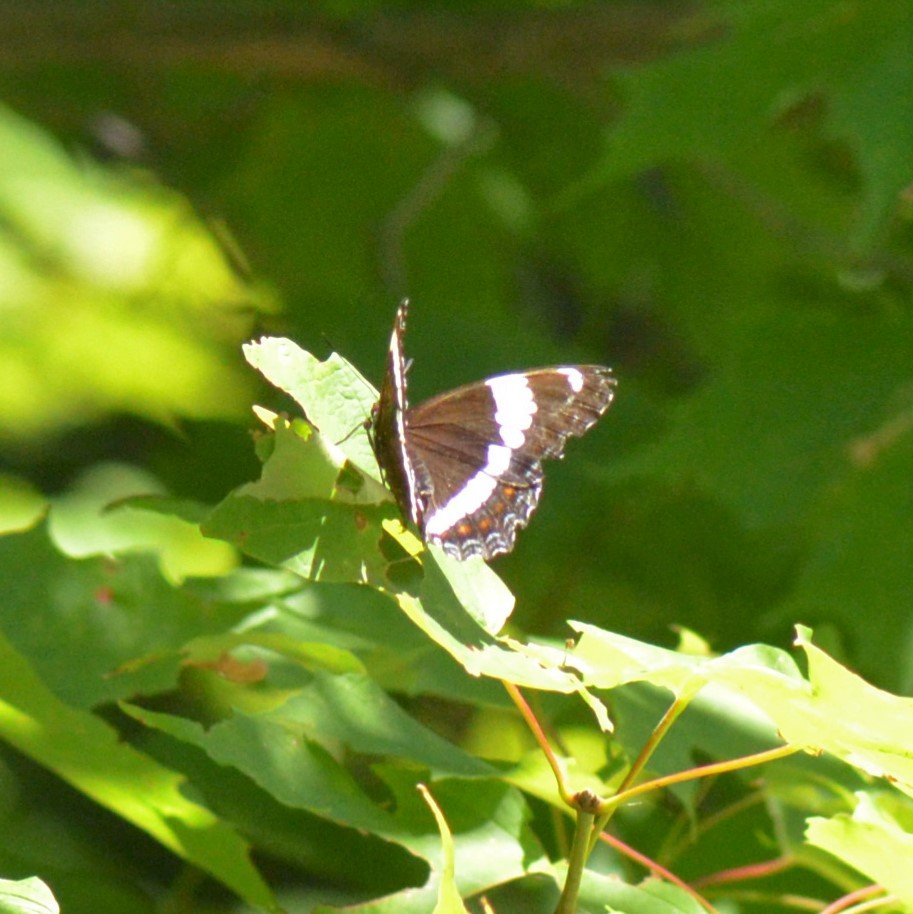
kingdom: Animalia
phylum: Arthropoda
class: Insecta
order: Lepidoptera
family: Nymphalidae
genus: Limenitis
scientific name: Limenitis arthemis
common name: Red-spotted Admiral
